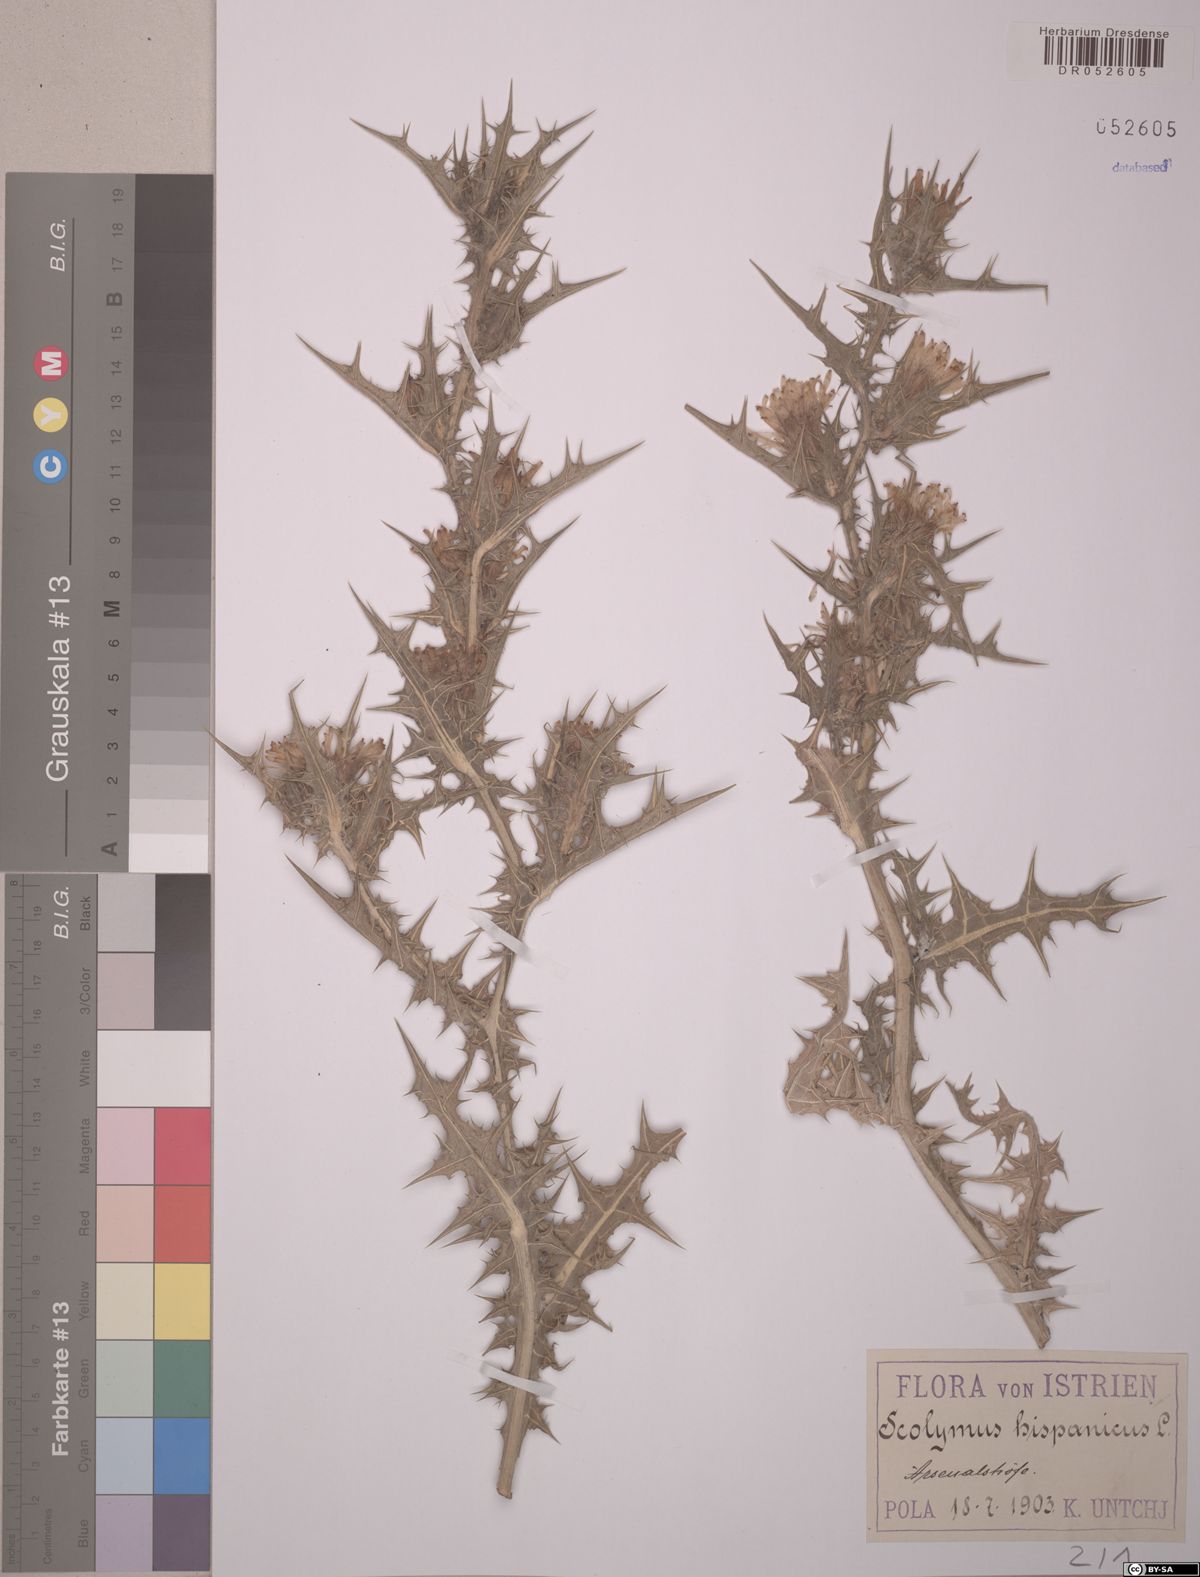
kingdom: Plantae
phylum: Tracheophyta
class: Magnoliopsida
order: Asterales
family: Asteraceae
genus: Scolymus
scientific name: Scolymus hispanicus
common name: Golden thistle
